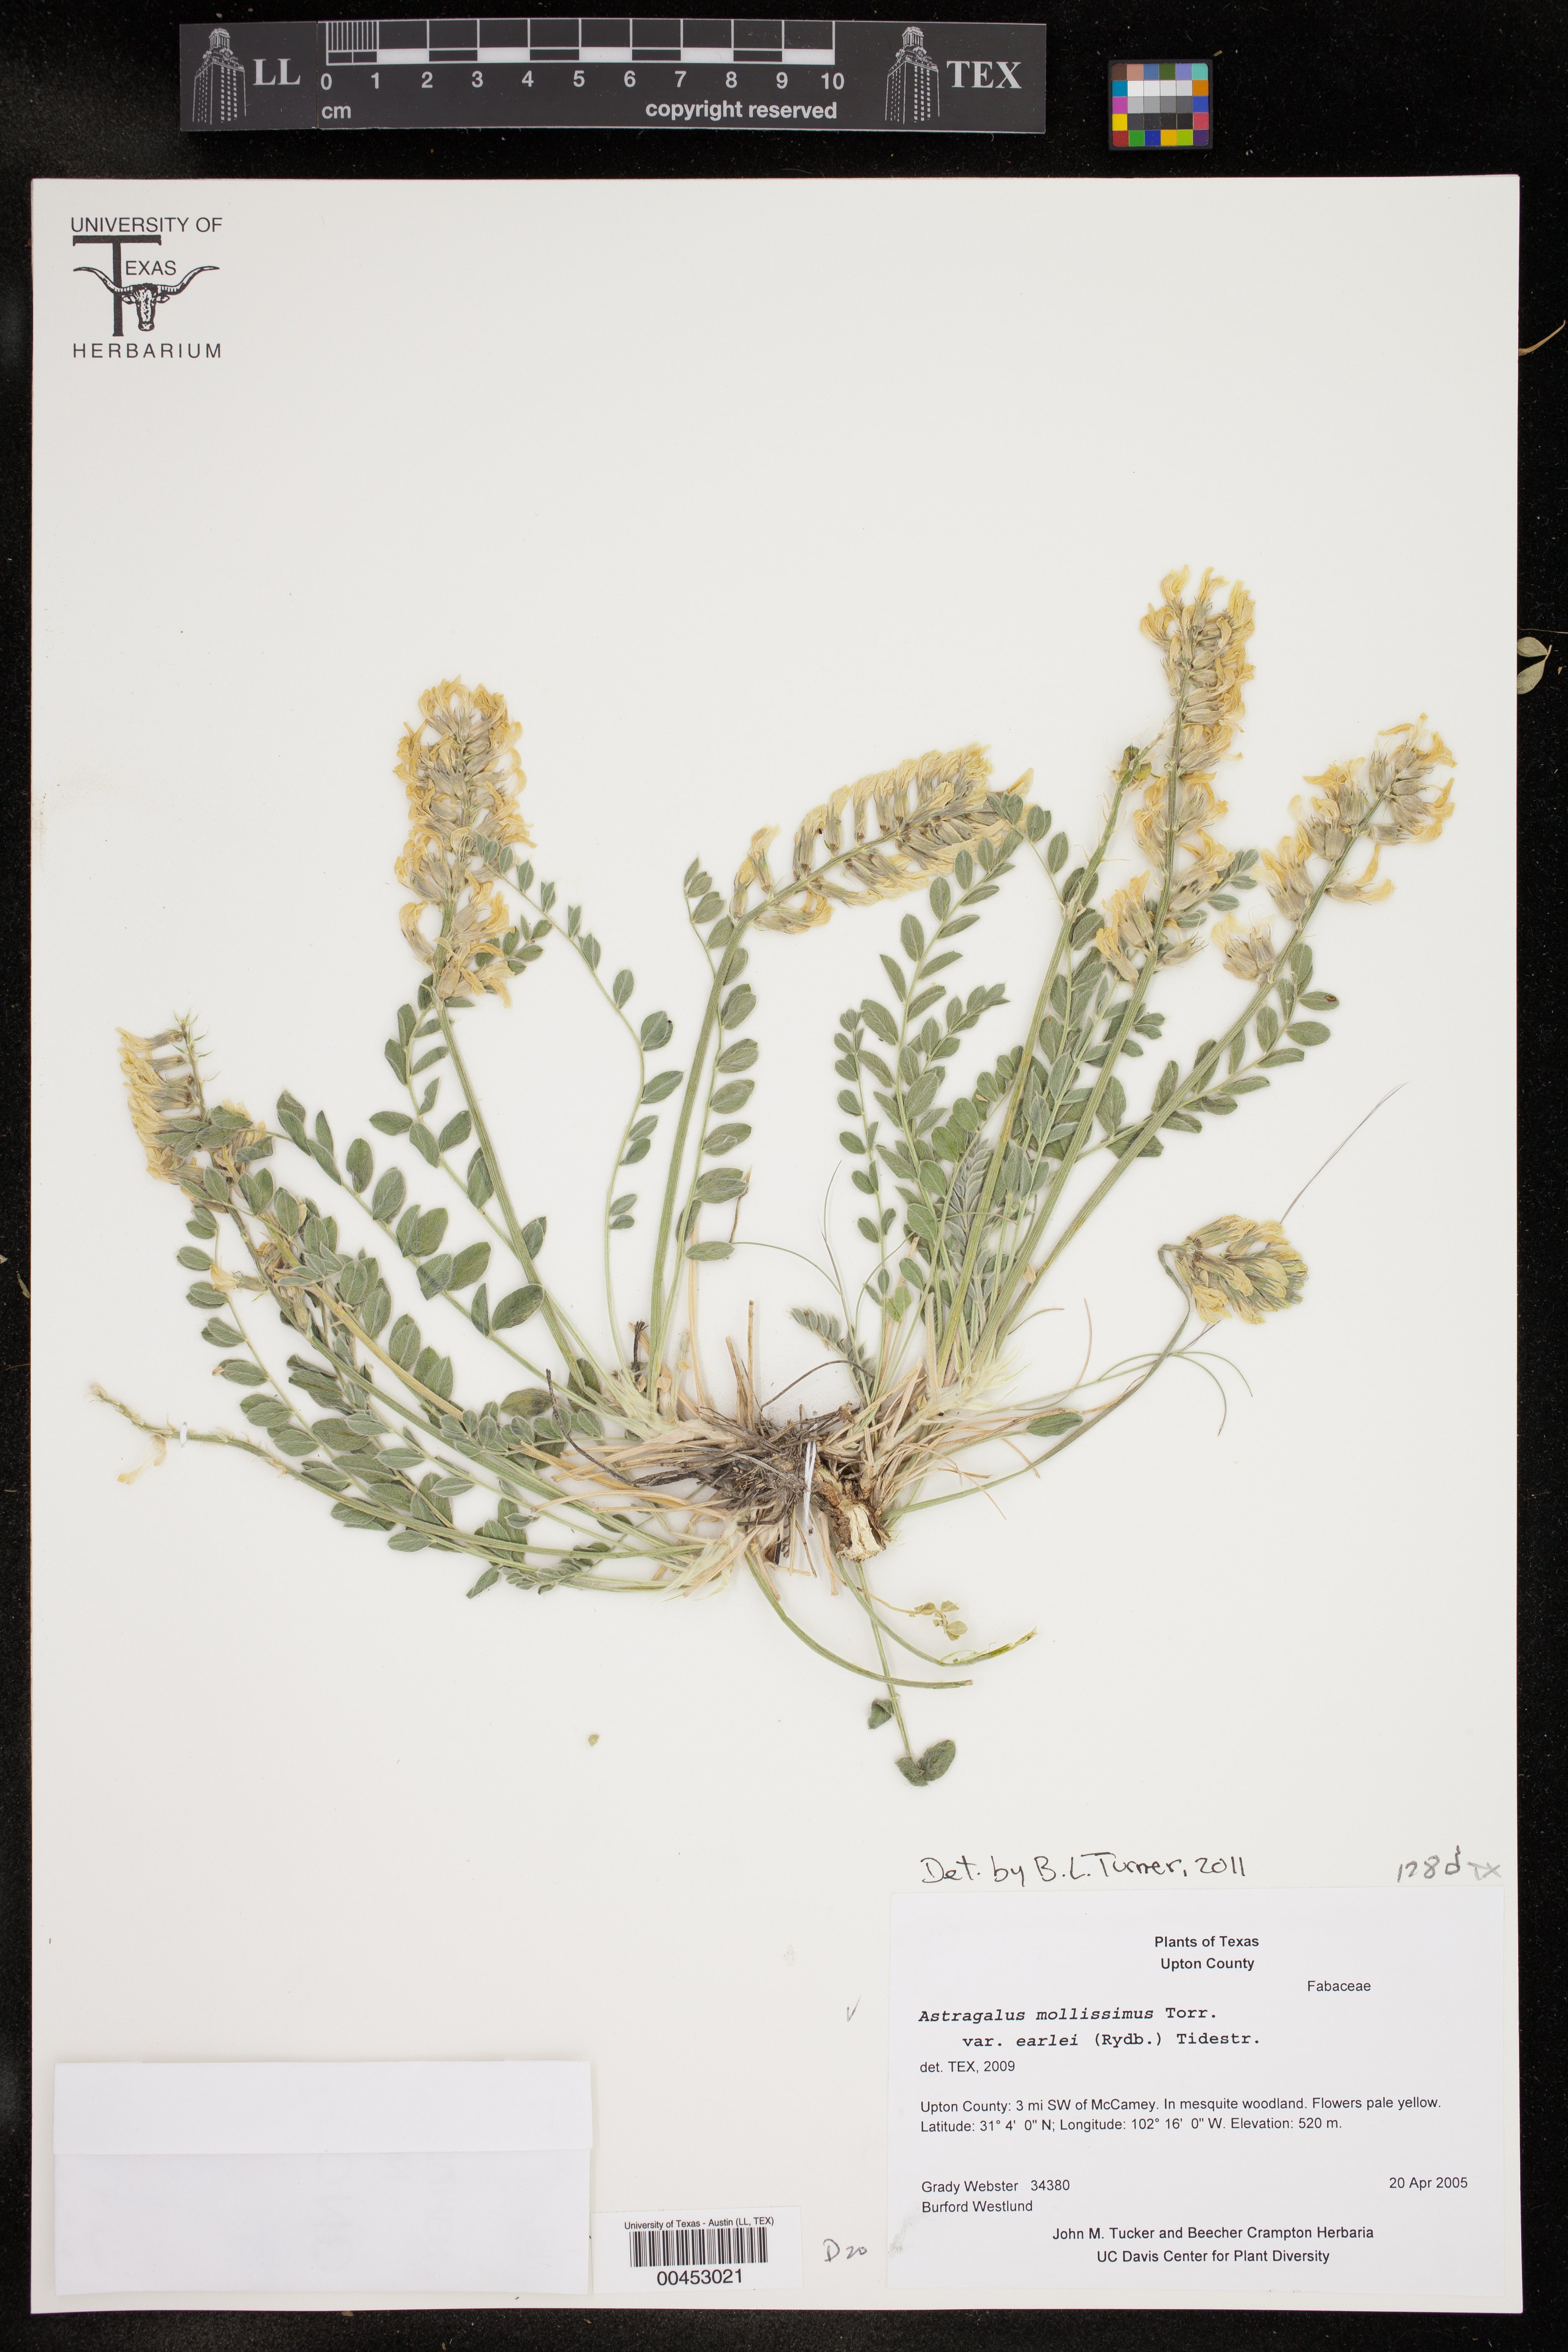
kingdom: Plantae
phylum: Tracheophyta
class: Magnoliopsida
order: Fabales
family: Fabaceae
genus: Astragalus
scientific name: Astragalus mollissimus
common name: Woolly locoweed
